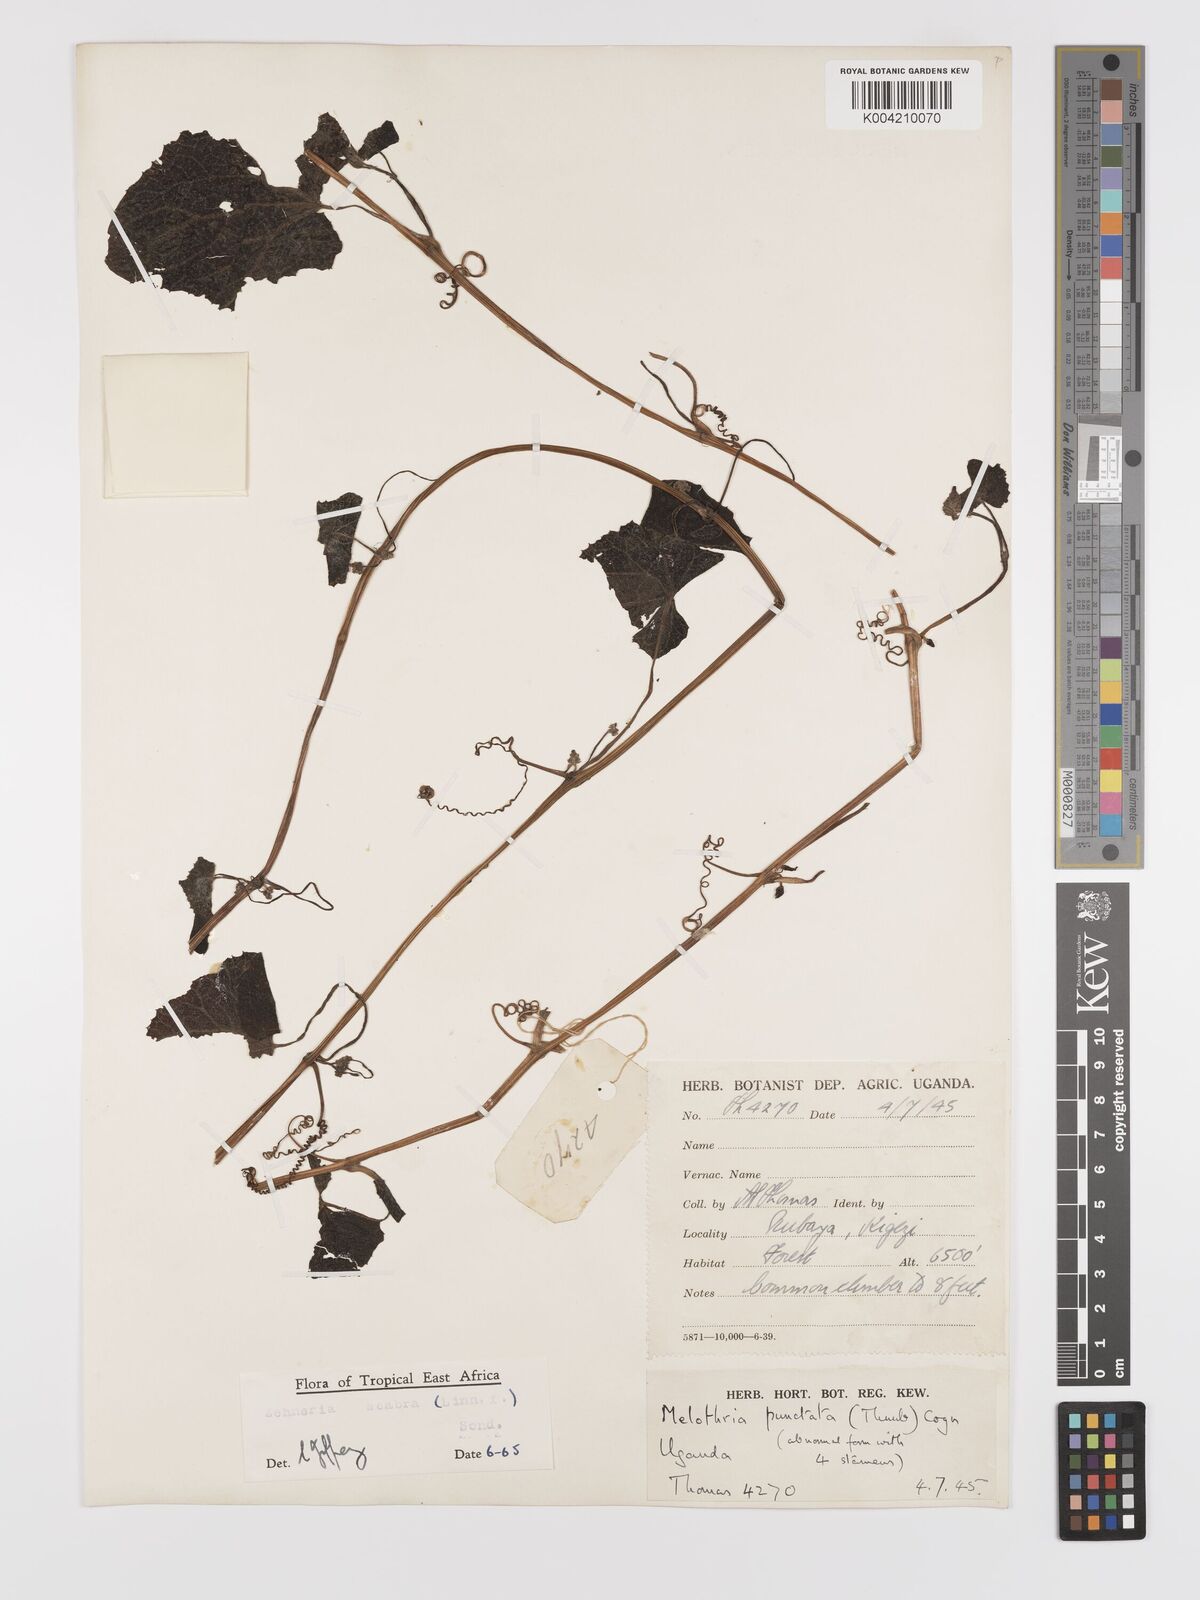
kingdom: Plantae
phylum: Tracheophyta
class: Magnoliopsida
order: Cucurbitales
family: Cucurbitaceae
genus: Zehneria
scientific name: Zehneria scabra
